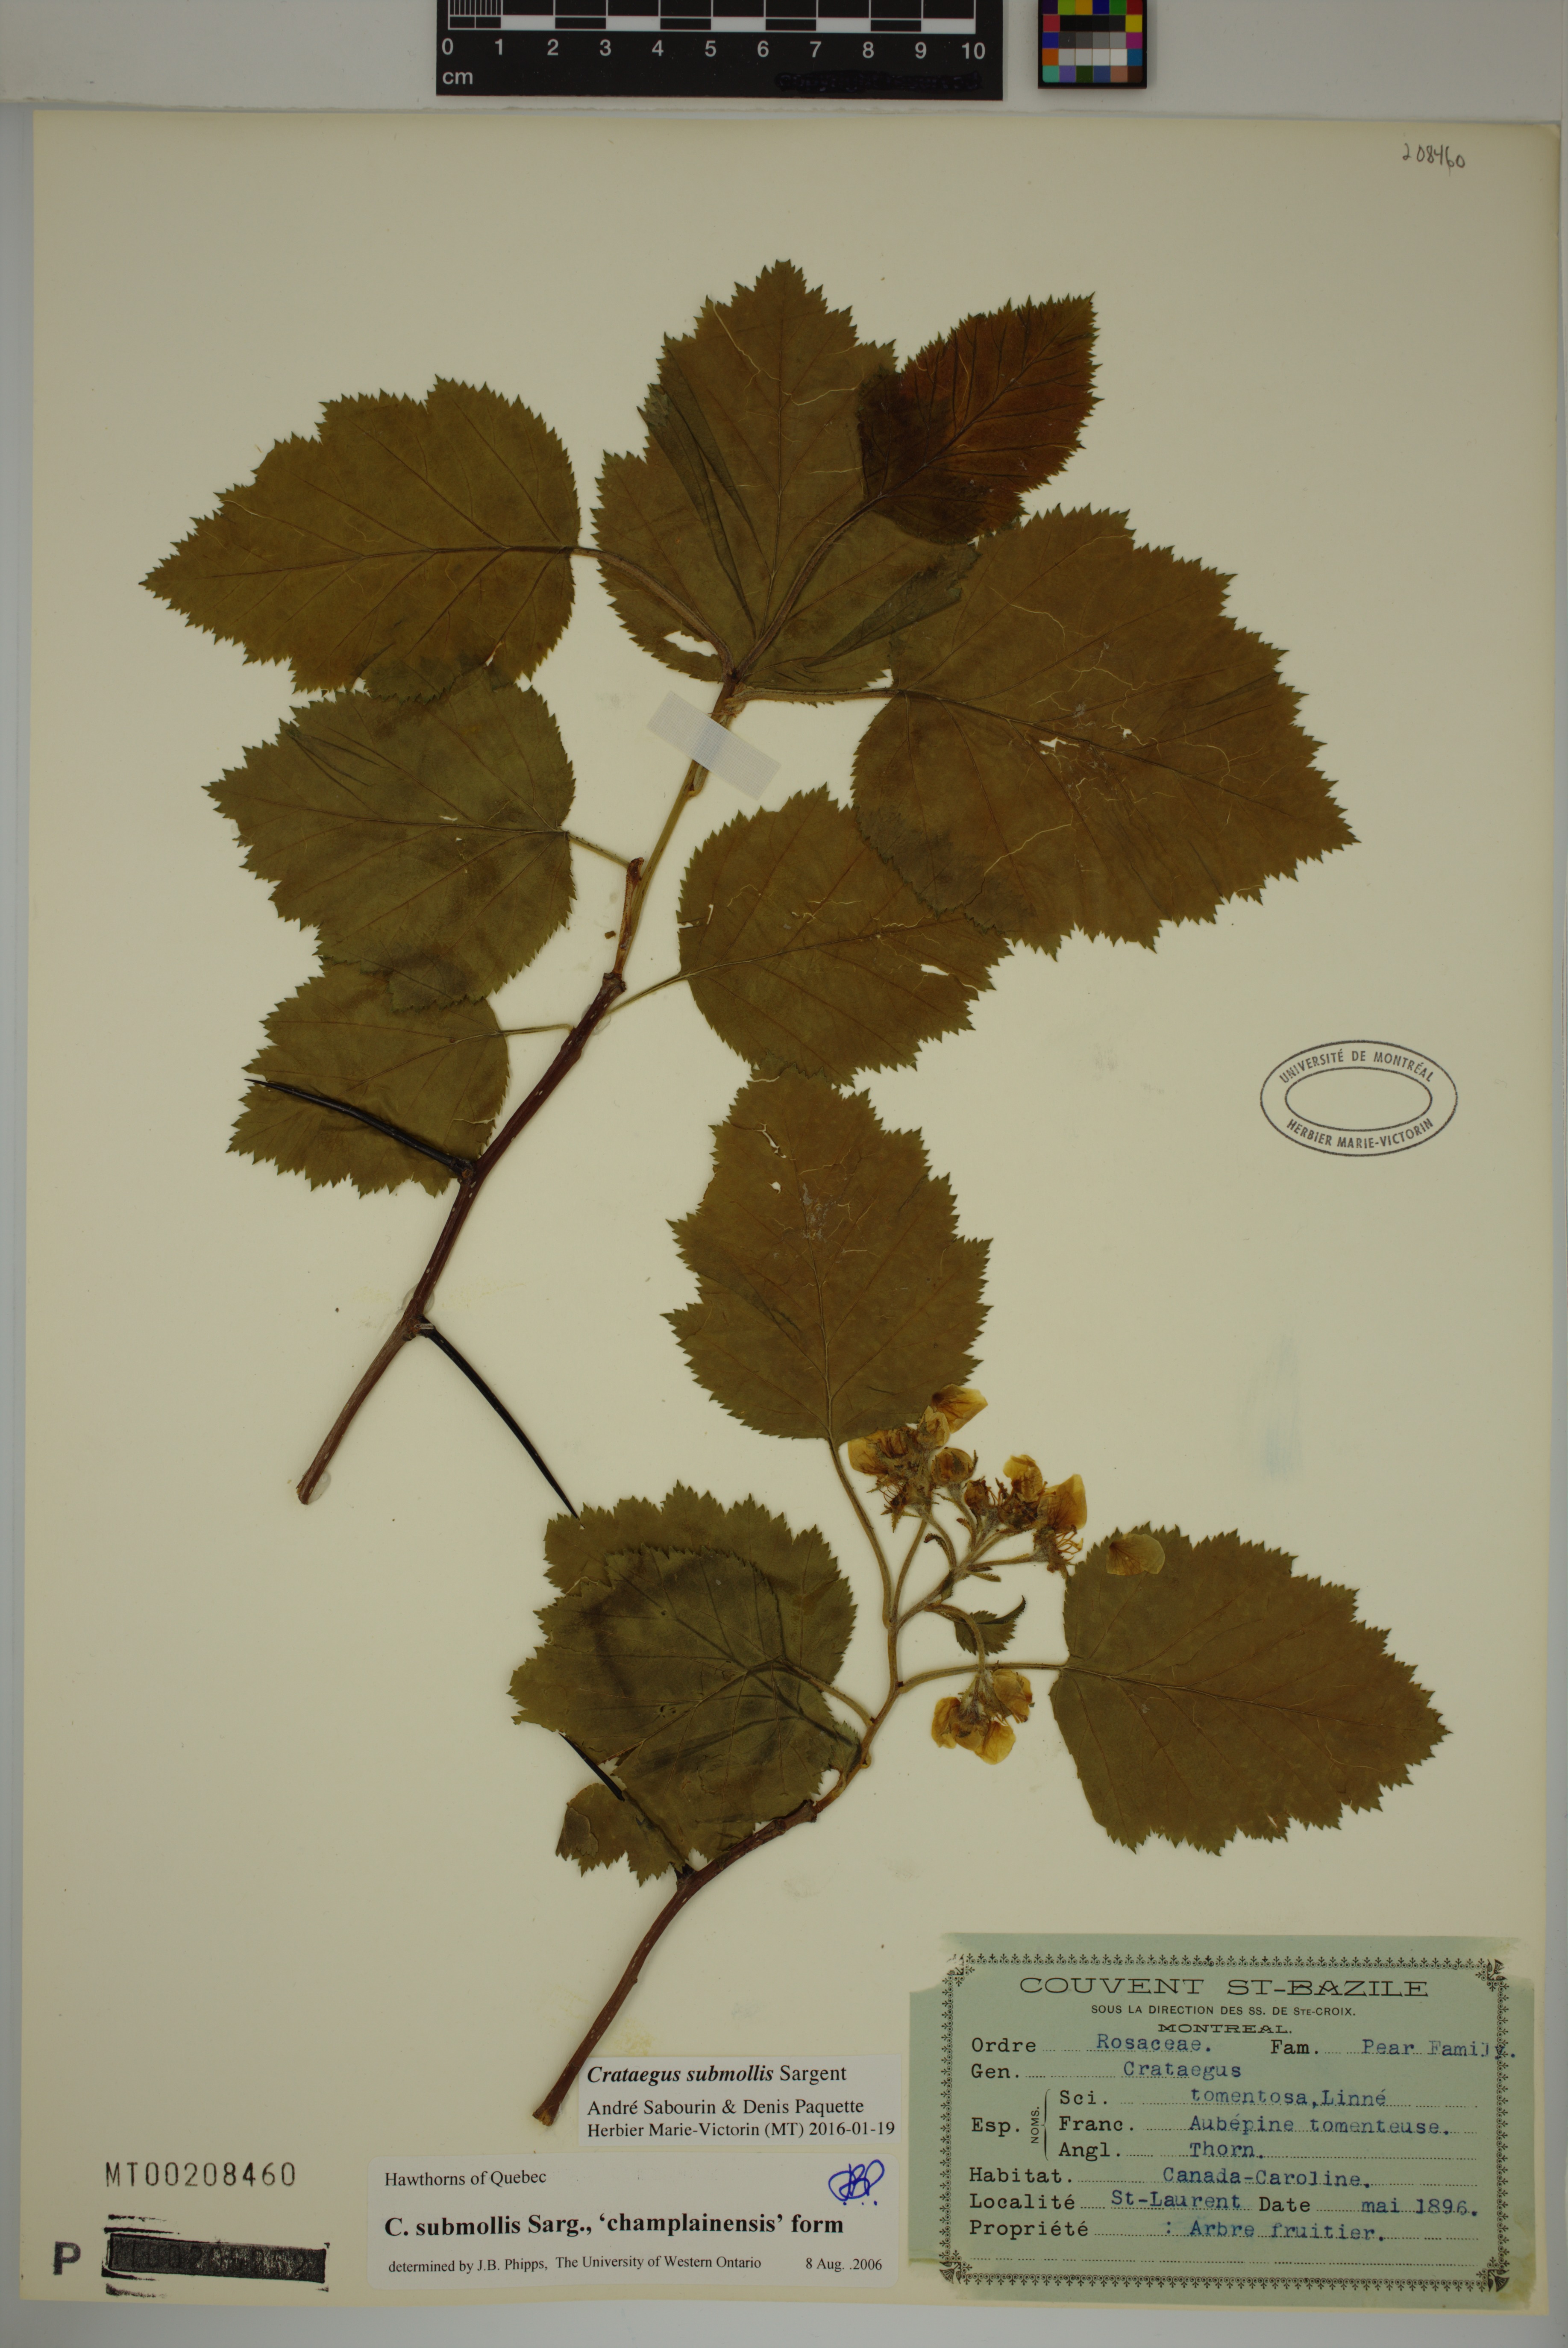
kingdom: Plantae
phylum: Tracheophyta
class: Magnoliopsida
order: Rosales
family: Rosaceae
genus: Crataegus
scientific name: Crataegus submollis
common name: Hairy cockspurthorn
